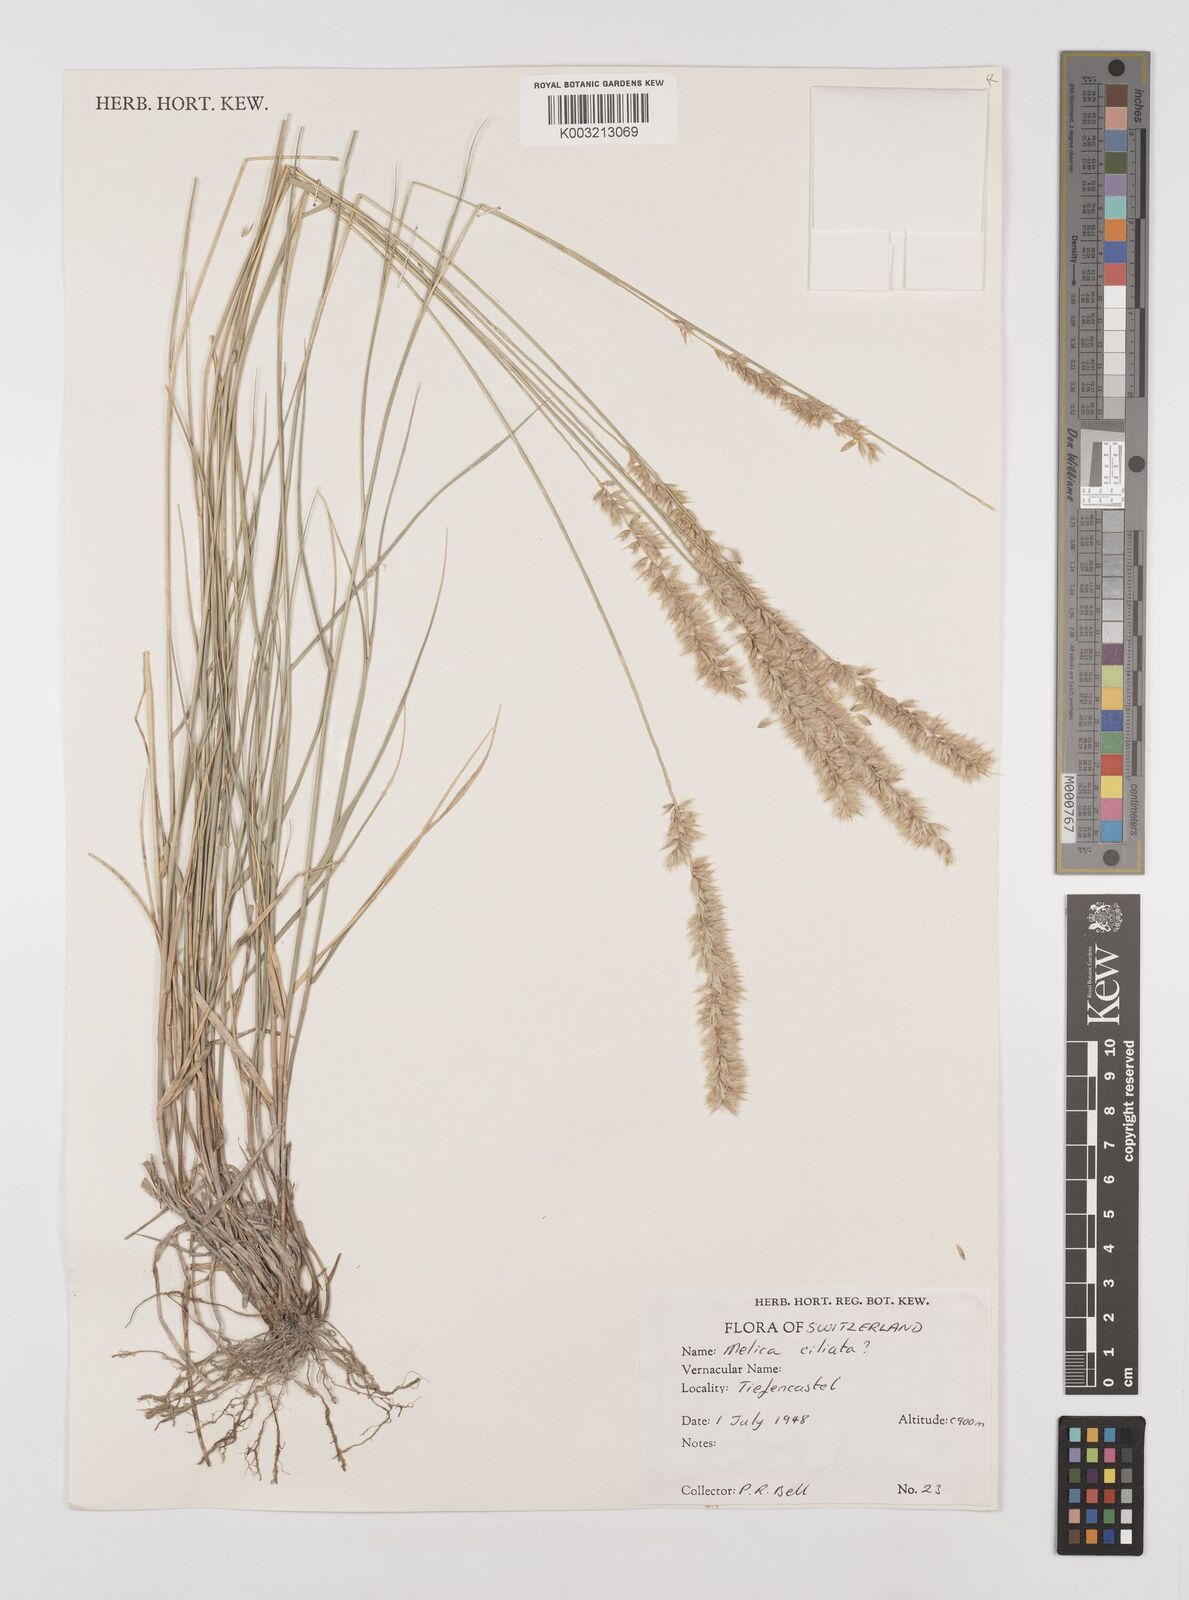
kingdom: Plantae
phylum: Tracheophyta
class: Liliopsida
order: Poales
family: Poaceae
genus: Melica
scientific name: Melica ciliata
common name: Hairy melicgrass
